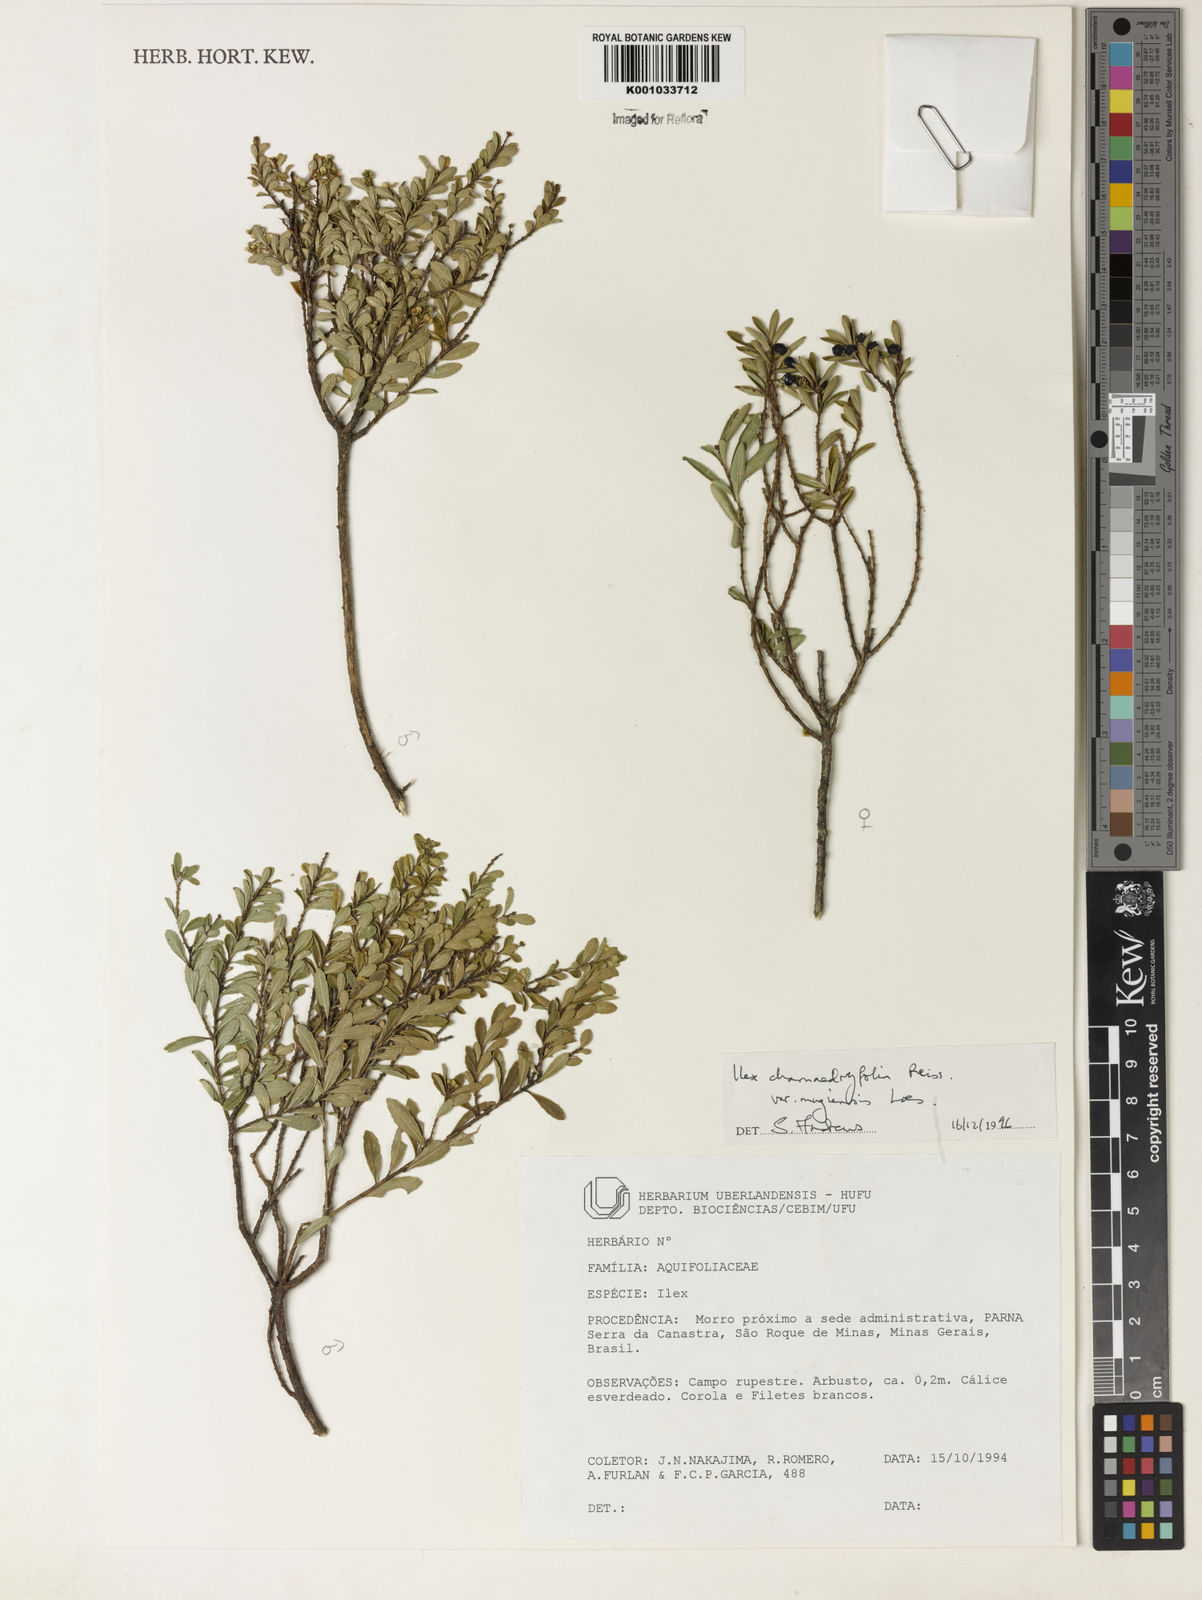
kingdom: Plantae
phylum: Tracheophyta
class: Magnoliopsida
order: Aquifoliales
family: Aquifoliaceae
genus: Ilex
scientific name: Ilex chamaedryfolia
